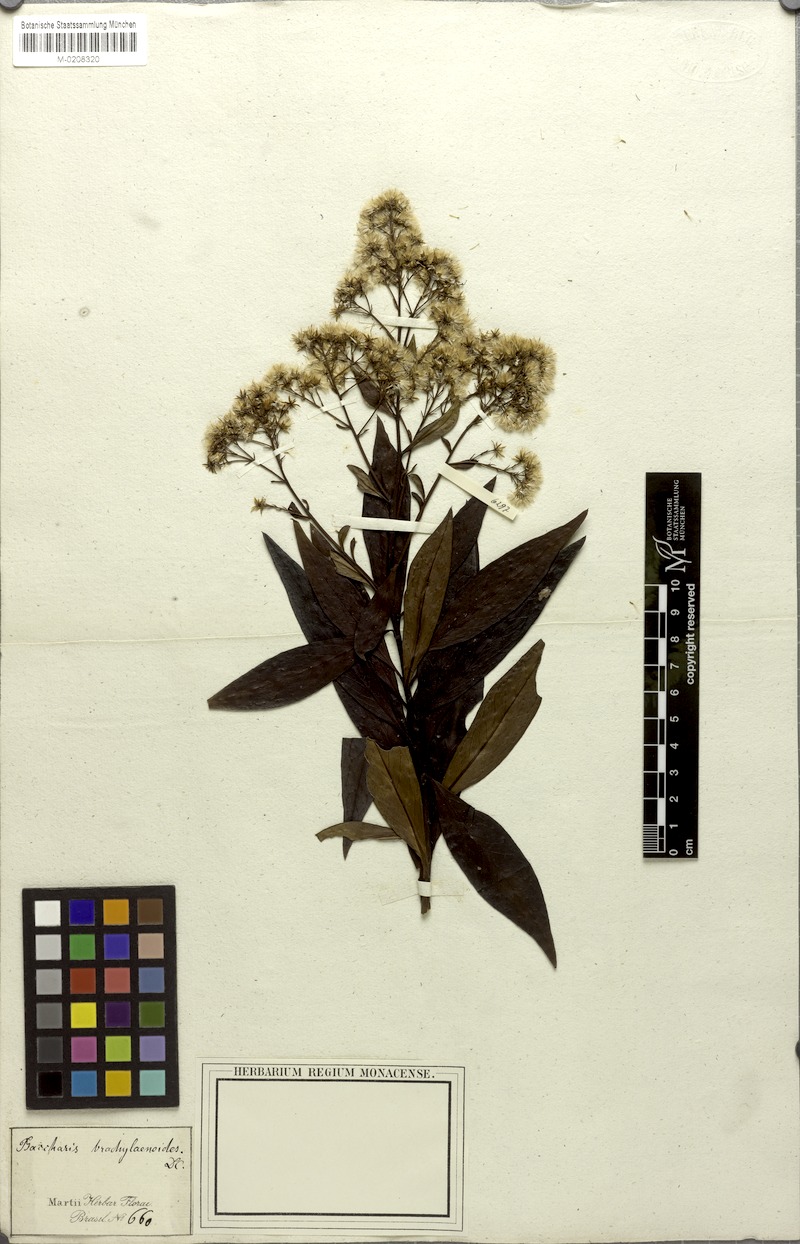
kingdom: Plantae
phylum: Tracheophyta
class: Magnoliopsida
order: Asterales
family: Asteraceae
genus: Baccharis
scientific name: Baccharis oblongifolia
